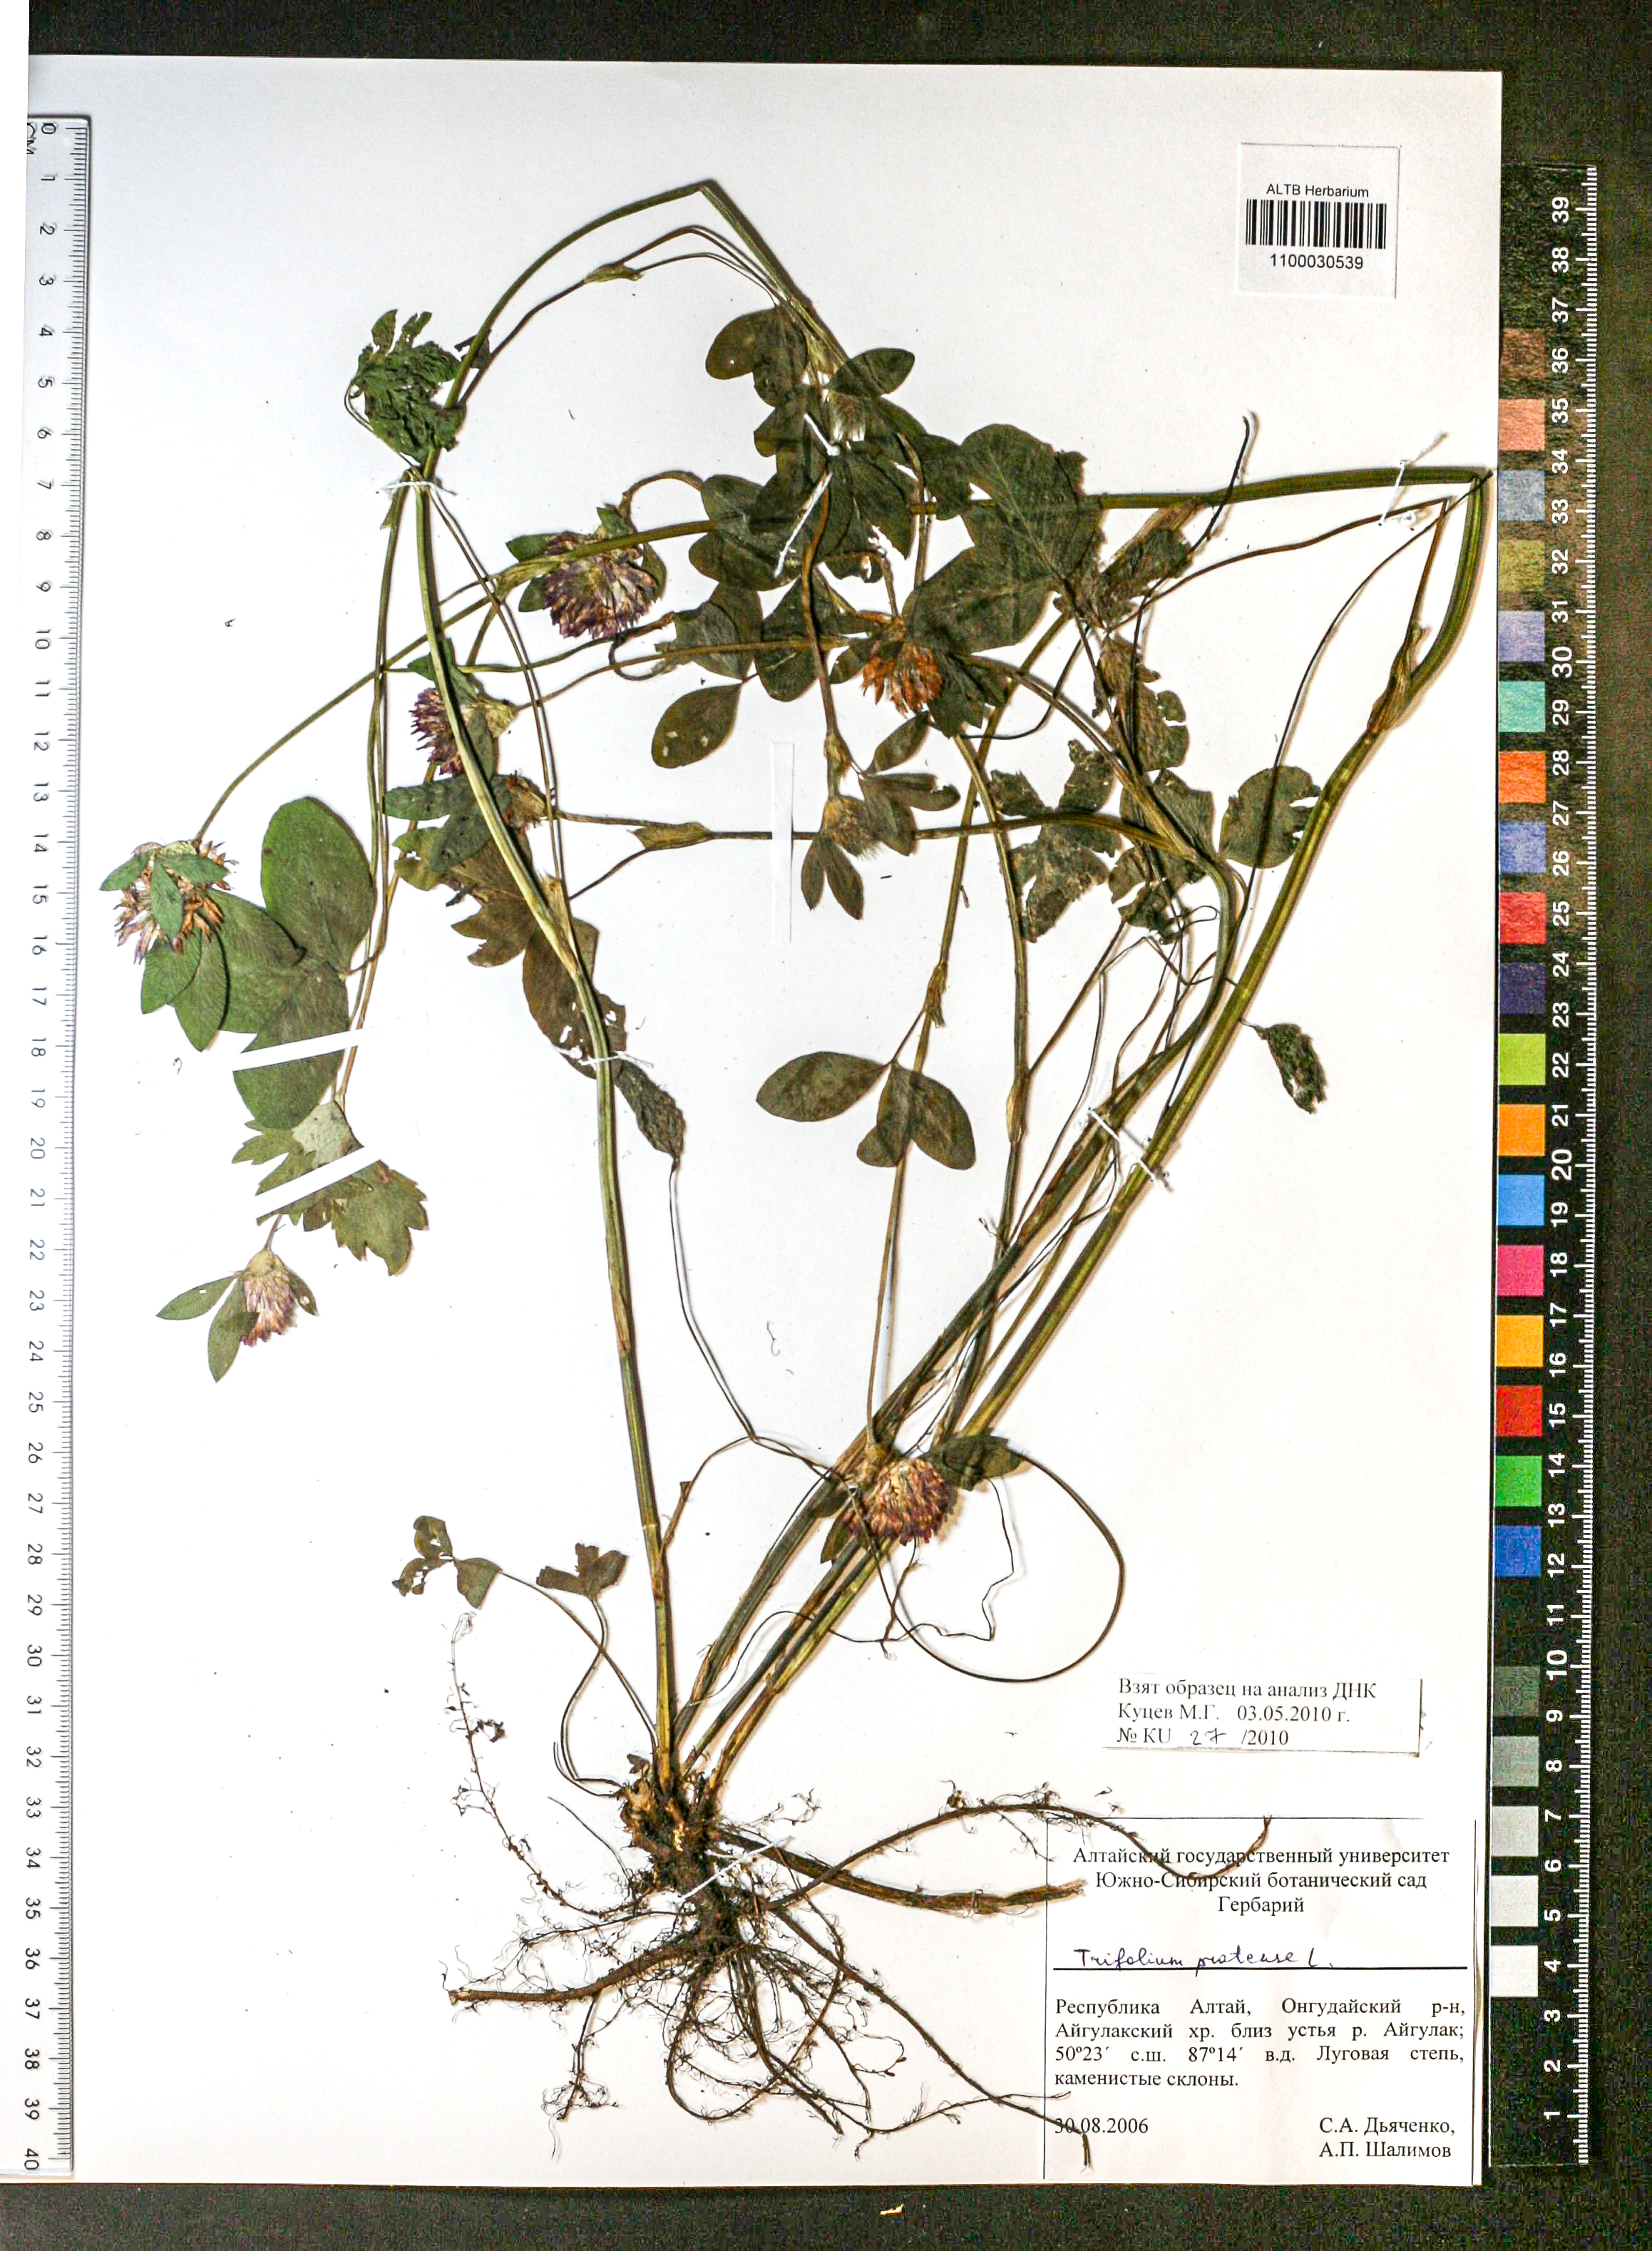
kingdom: Plantae
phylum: Tracheophyta
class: Magnoliopsida
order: Fabales
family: Fabaceae
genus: Trifolium
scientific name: Trifolium pratense
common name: Red clover
